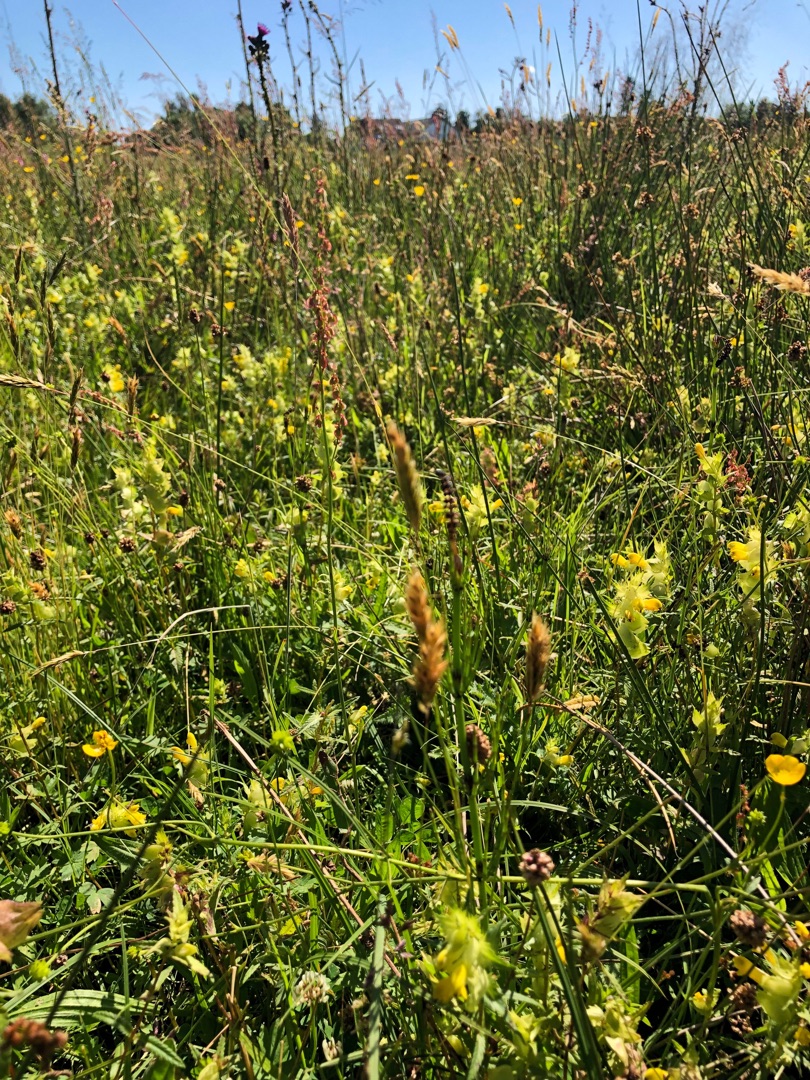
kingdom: Plantae
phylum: Tracheophyta
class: Liliopsida
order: Poales
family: Poaceae
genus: Anthoxanthum
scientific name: Anthoxanthum odoratum
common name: Vellugtende gulaks
